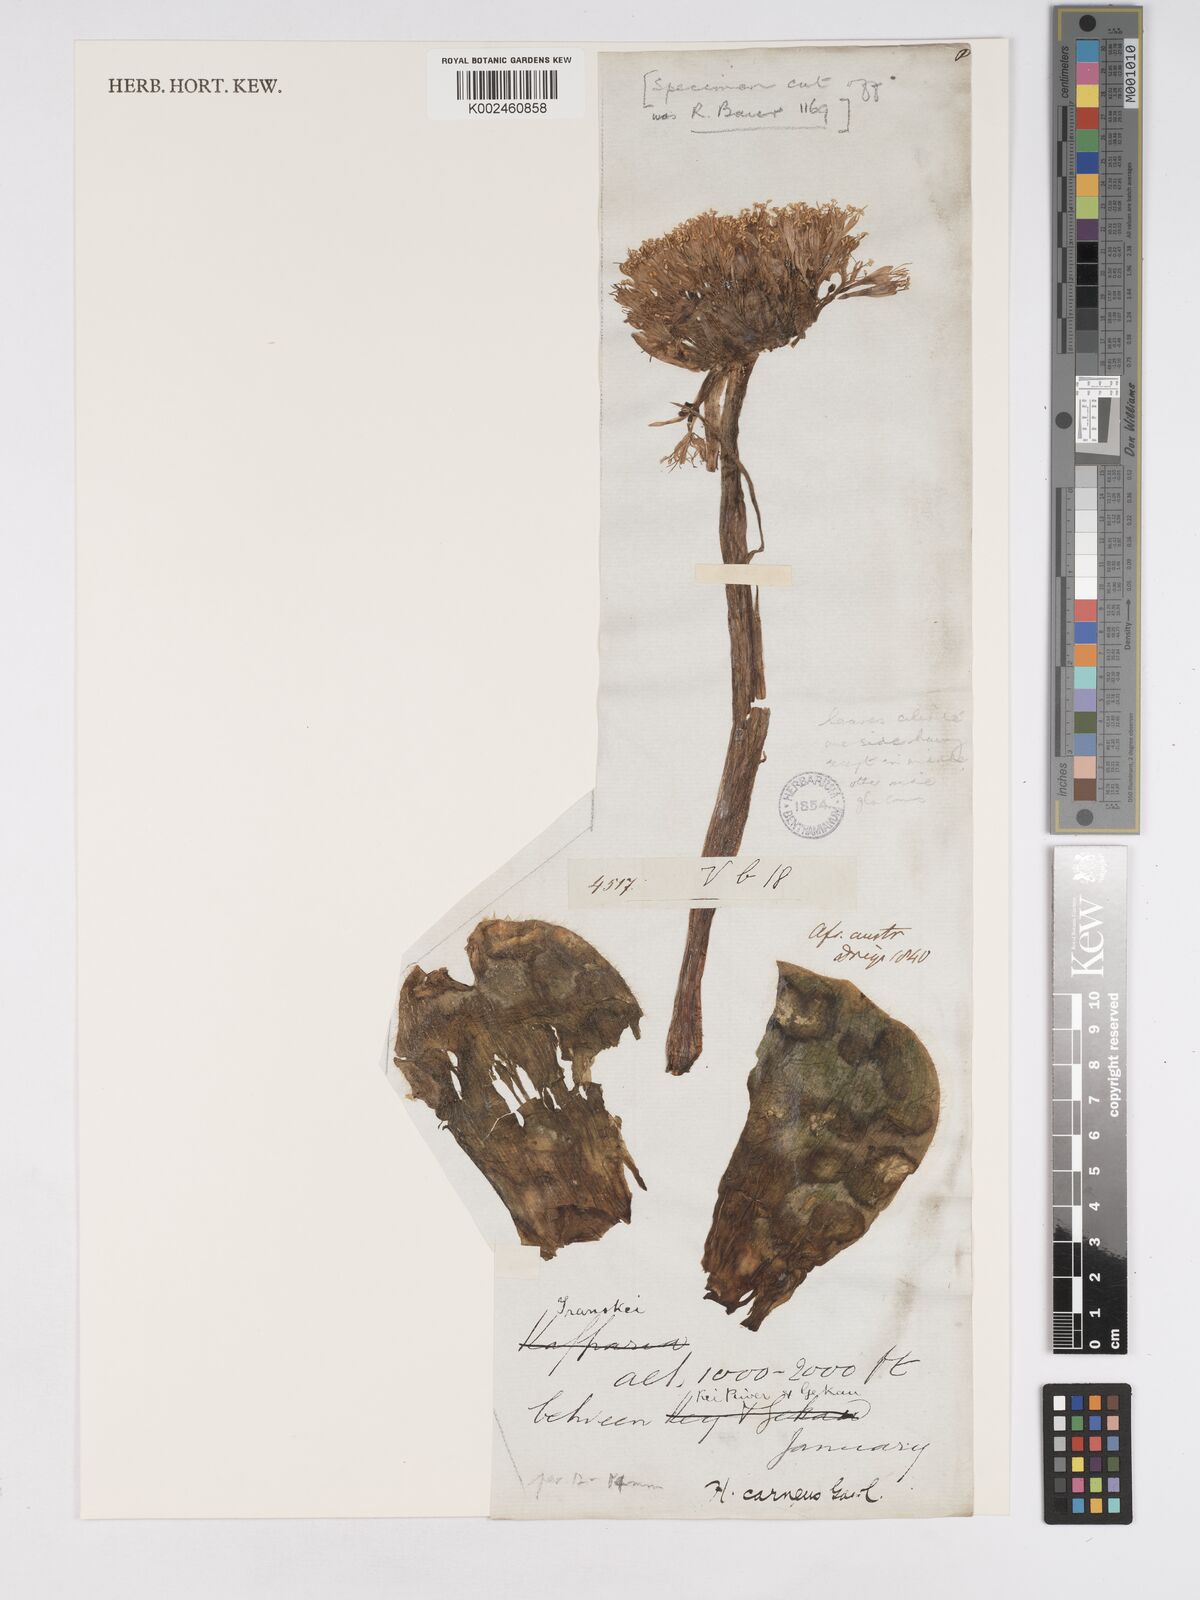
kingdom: Plantae
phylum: Tracheophyta
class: Liliopsida
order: Asparagales
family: Amaryllidaceae
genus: Haemanthus
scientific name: Haemanthus humilis
